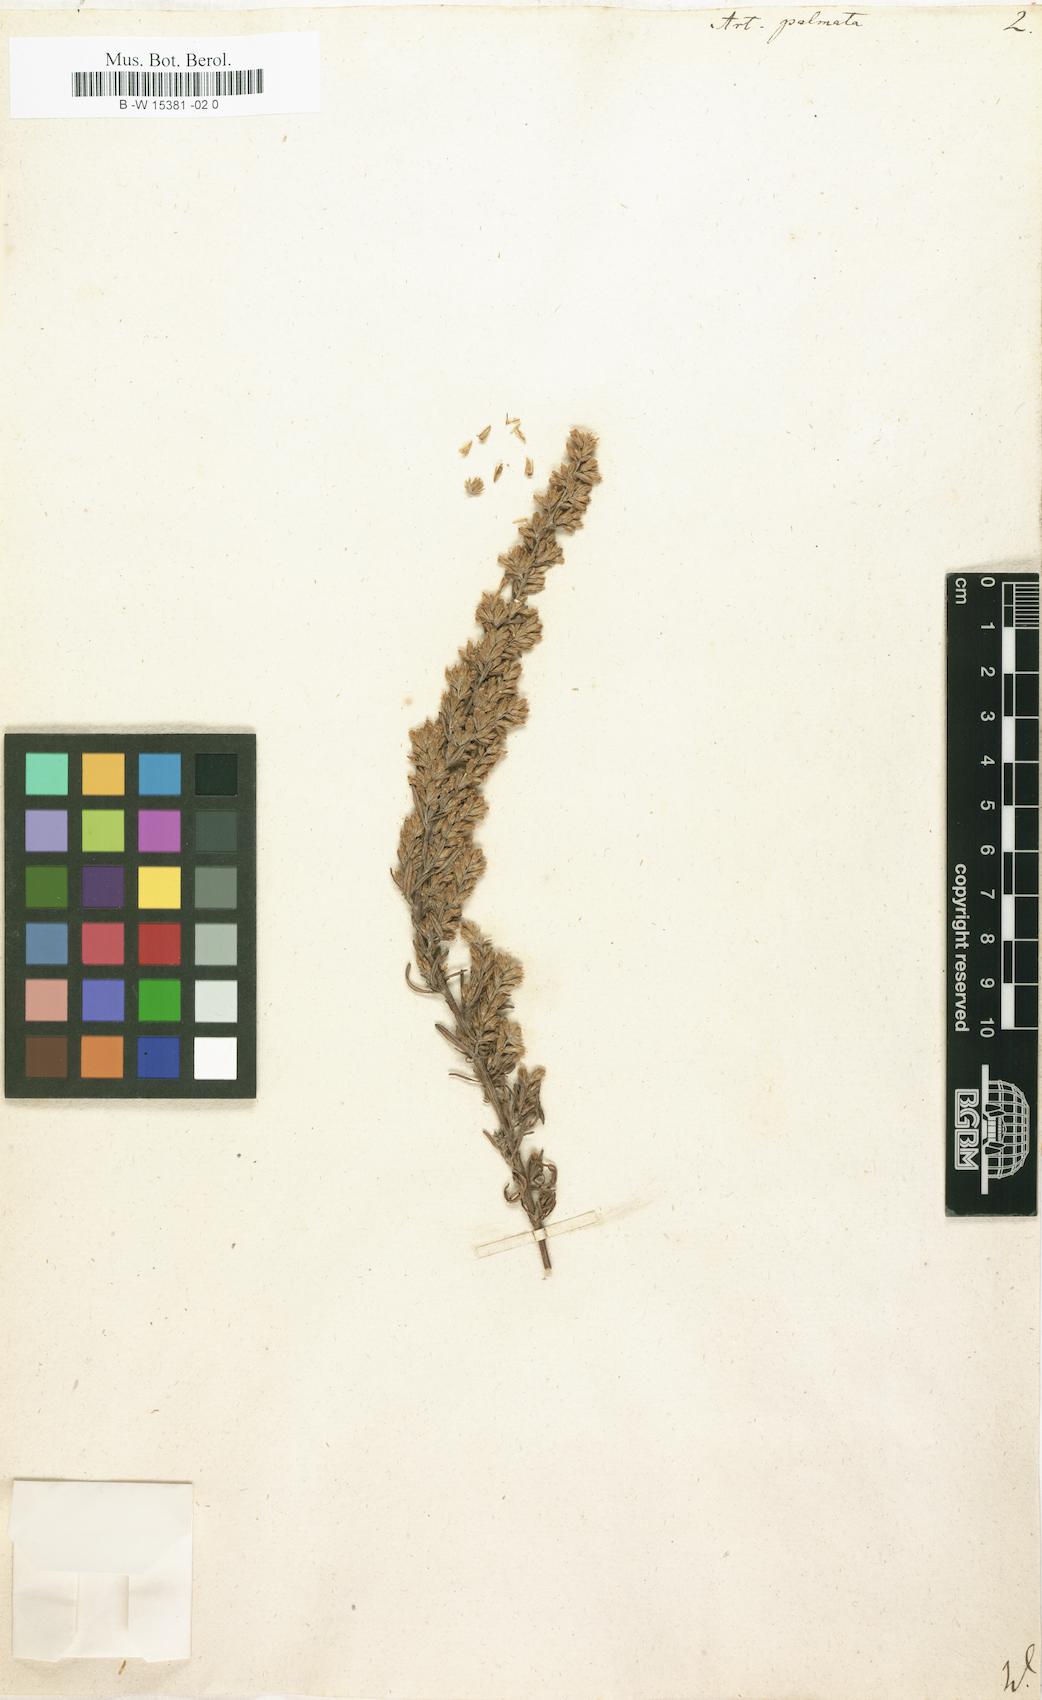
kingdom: Plantae
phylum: Tracheophyta
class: Magnoliopsida
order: Asterales
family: Asteraceae
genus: Artemisia
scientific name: Artemisia maritima
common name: Wormseed
